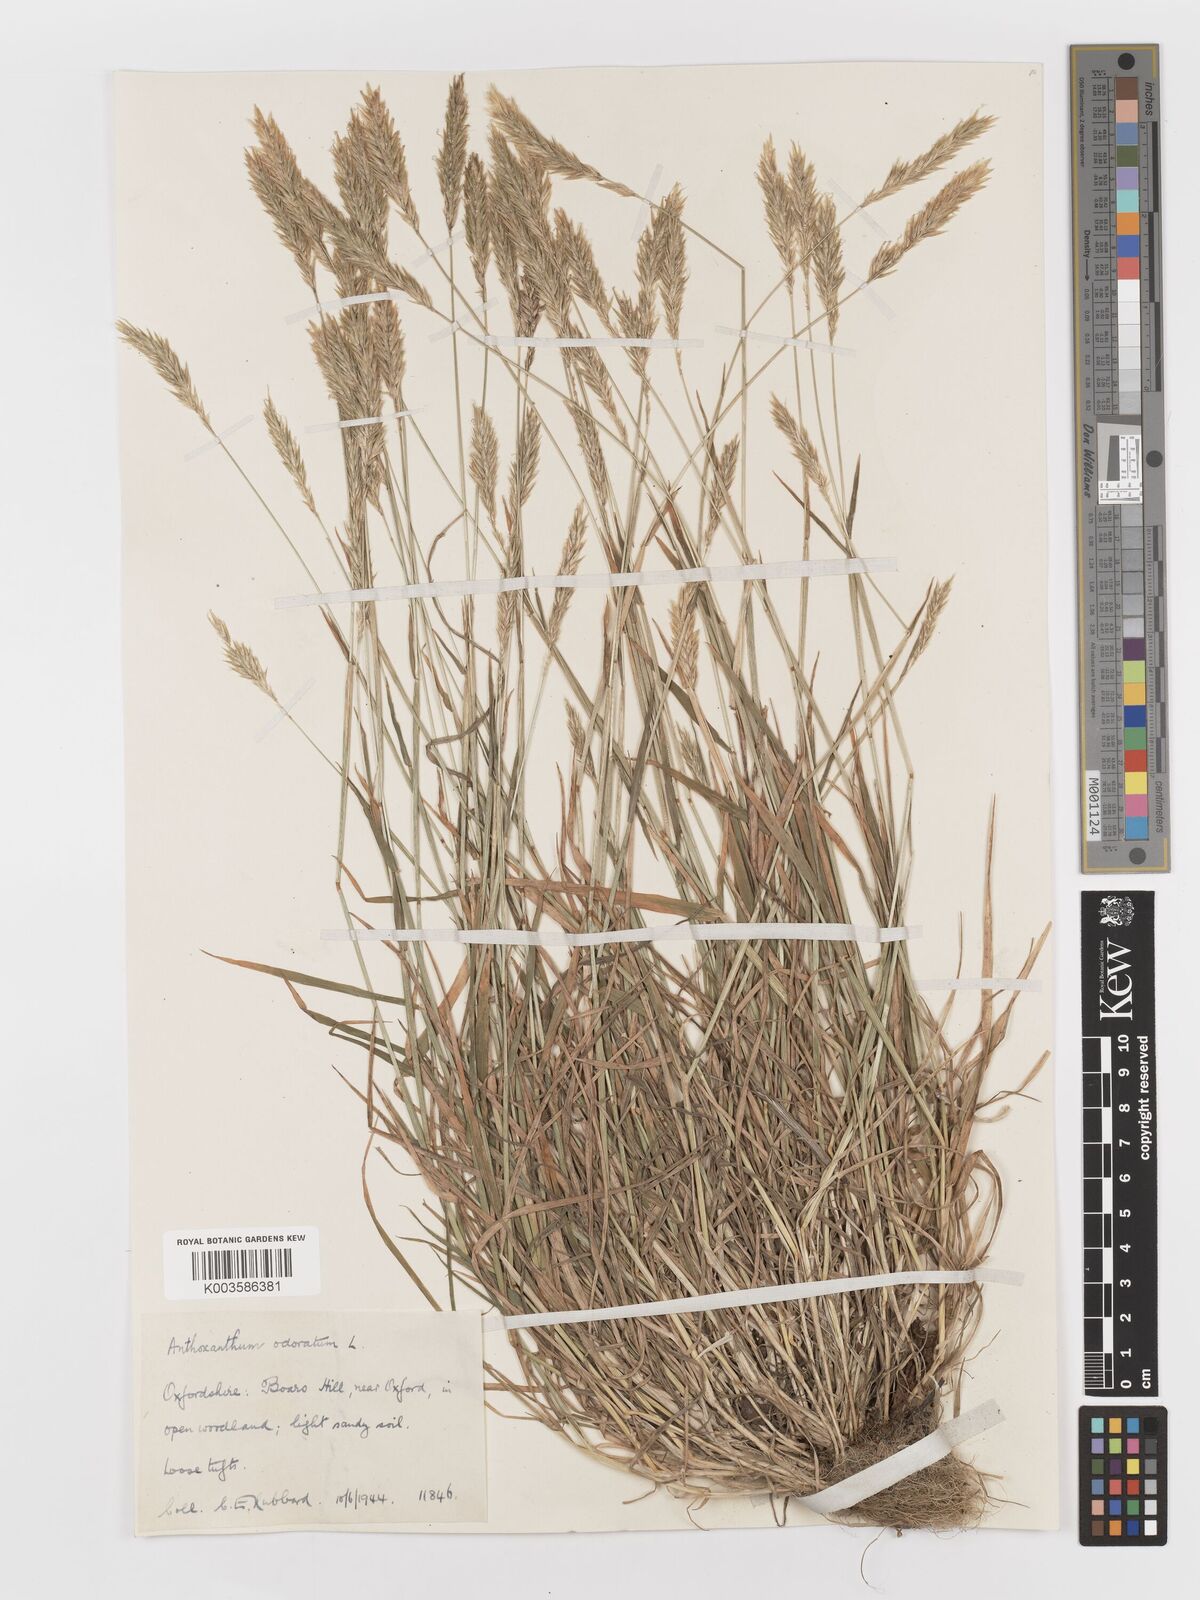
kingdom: Plantae
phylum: Tracheophyta
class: Liliopsida
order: Poales
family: Poaceae
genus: Anthoxanthum
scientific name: Anthoxanthum odoratum
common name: Sweet vernalgrass
